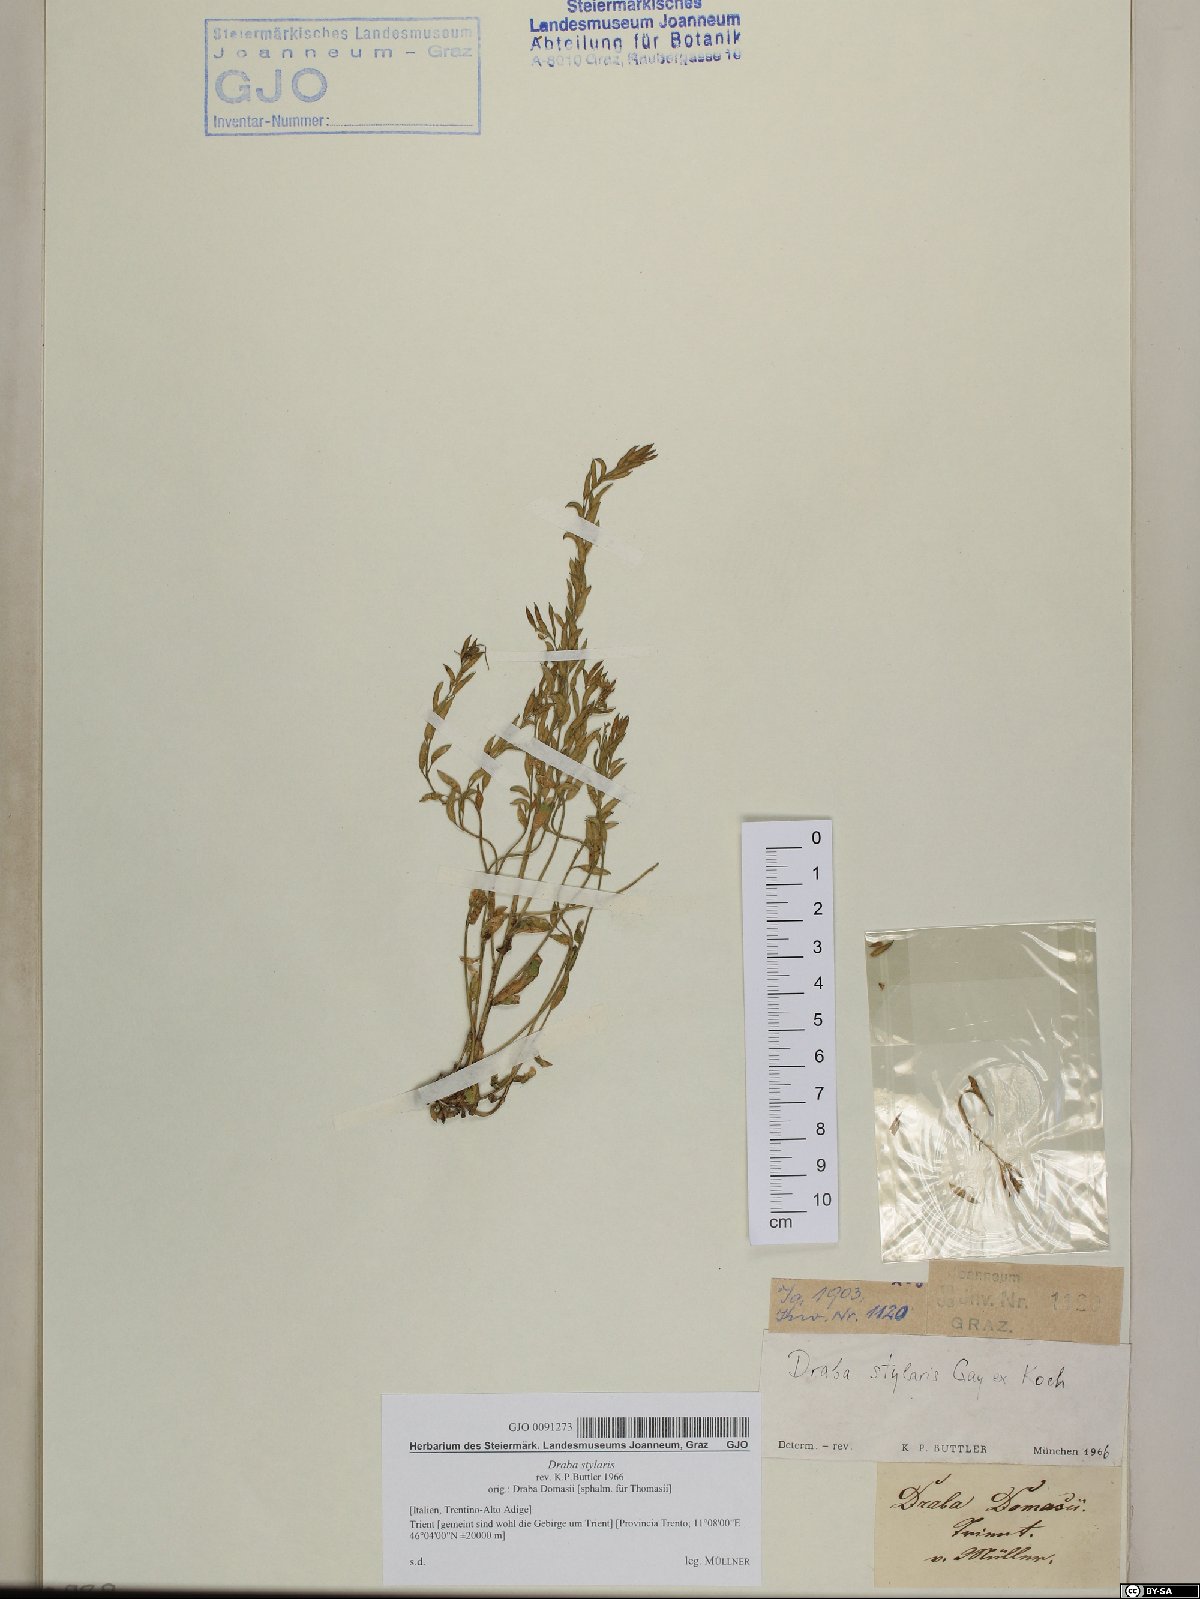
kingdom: Plantae
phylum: Tracheophyta
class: Magnoliopsida
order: Brassicales
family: Brassicaceae
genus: Draba
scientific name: Draba thomasii
